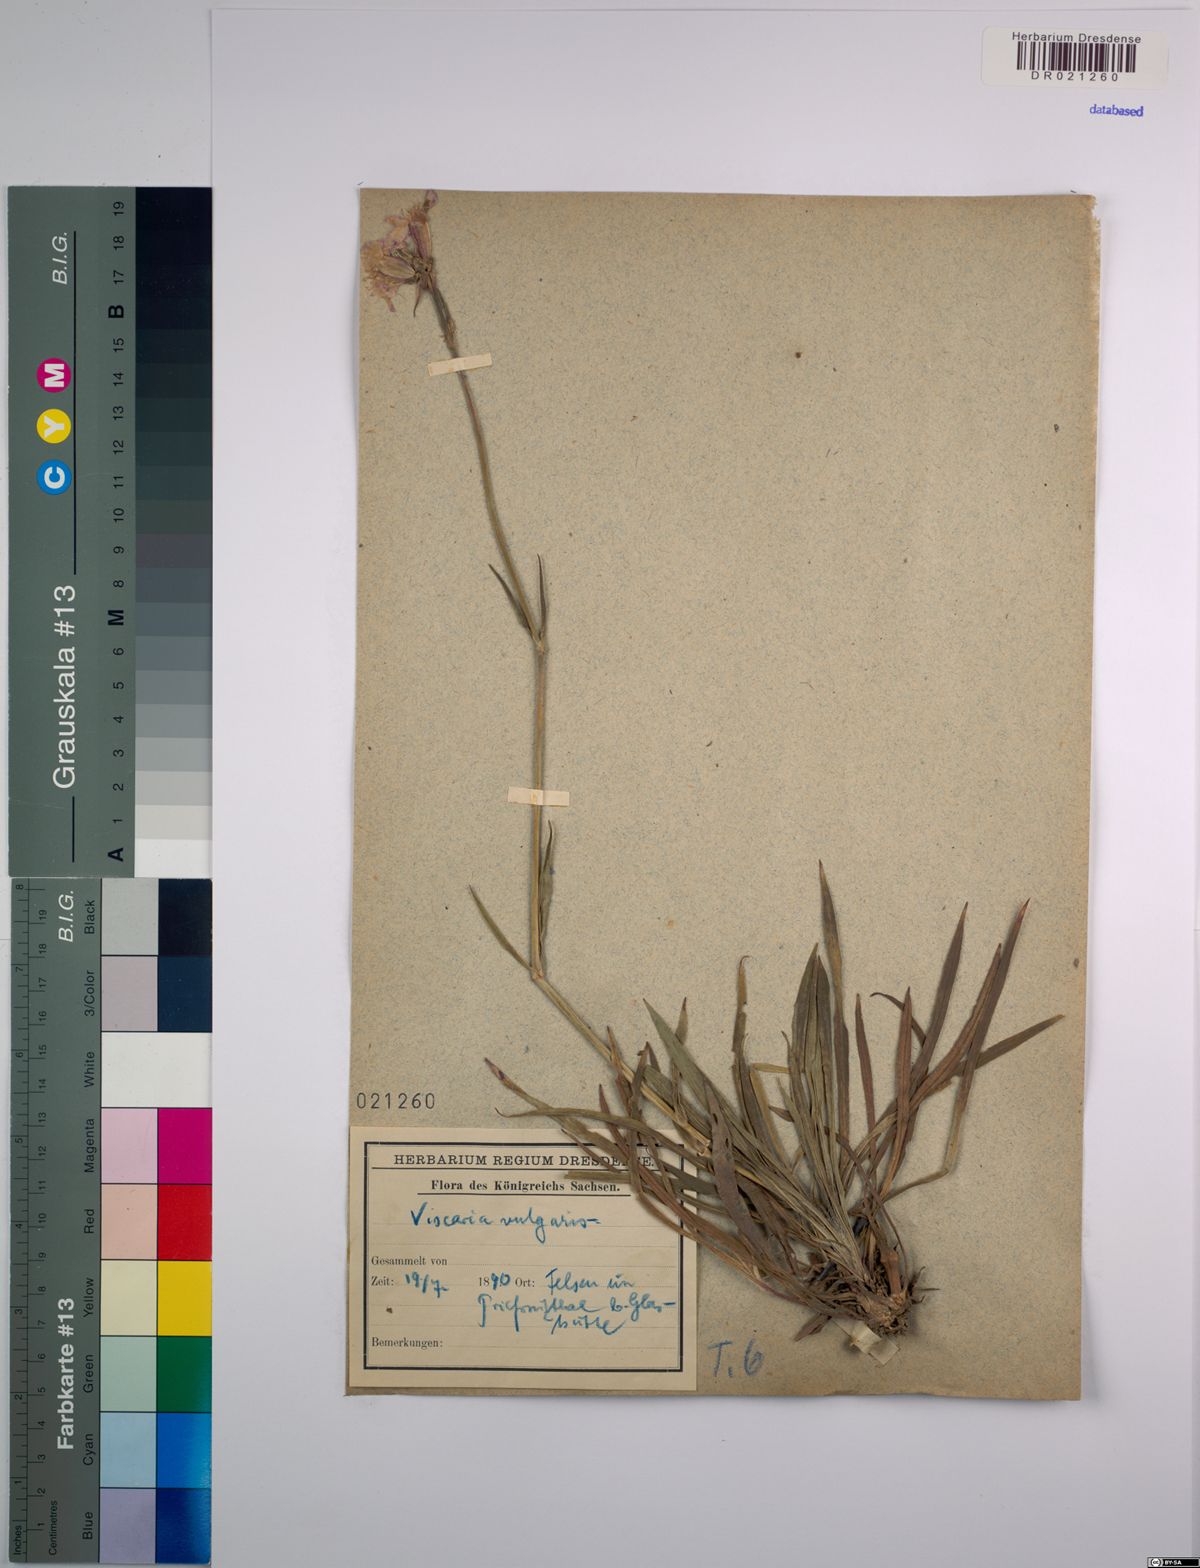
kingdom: Plantae
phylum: Tracheophyta
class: Magnoliopsida
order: Caryophyllales
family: Caryophyllaceae
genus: Viscaria
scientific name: Viscaria vulgaris
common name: Clammy campion
